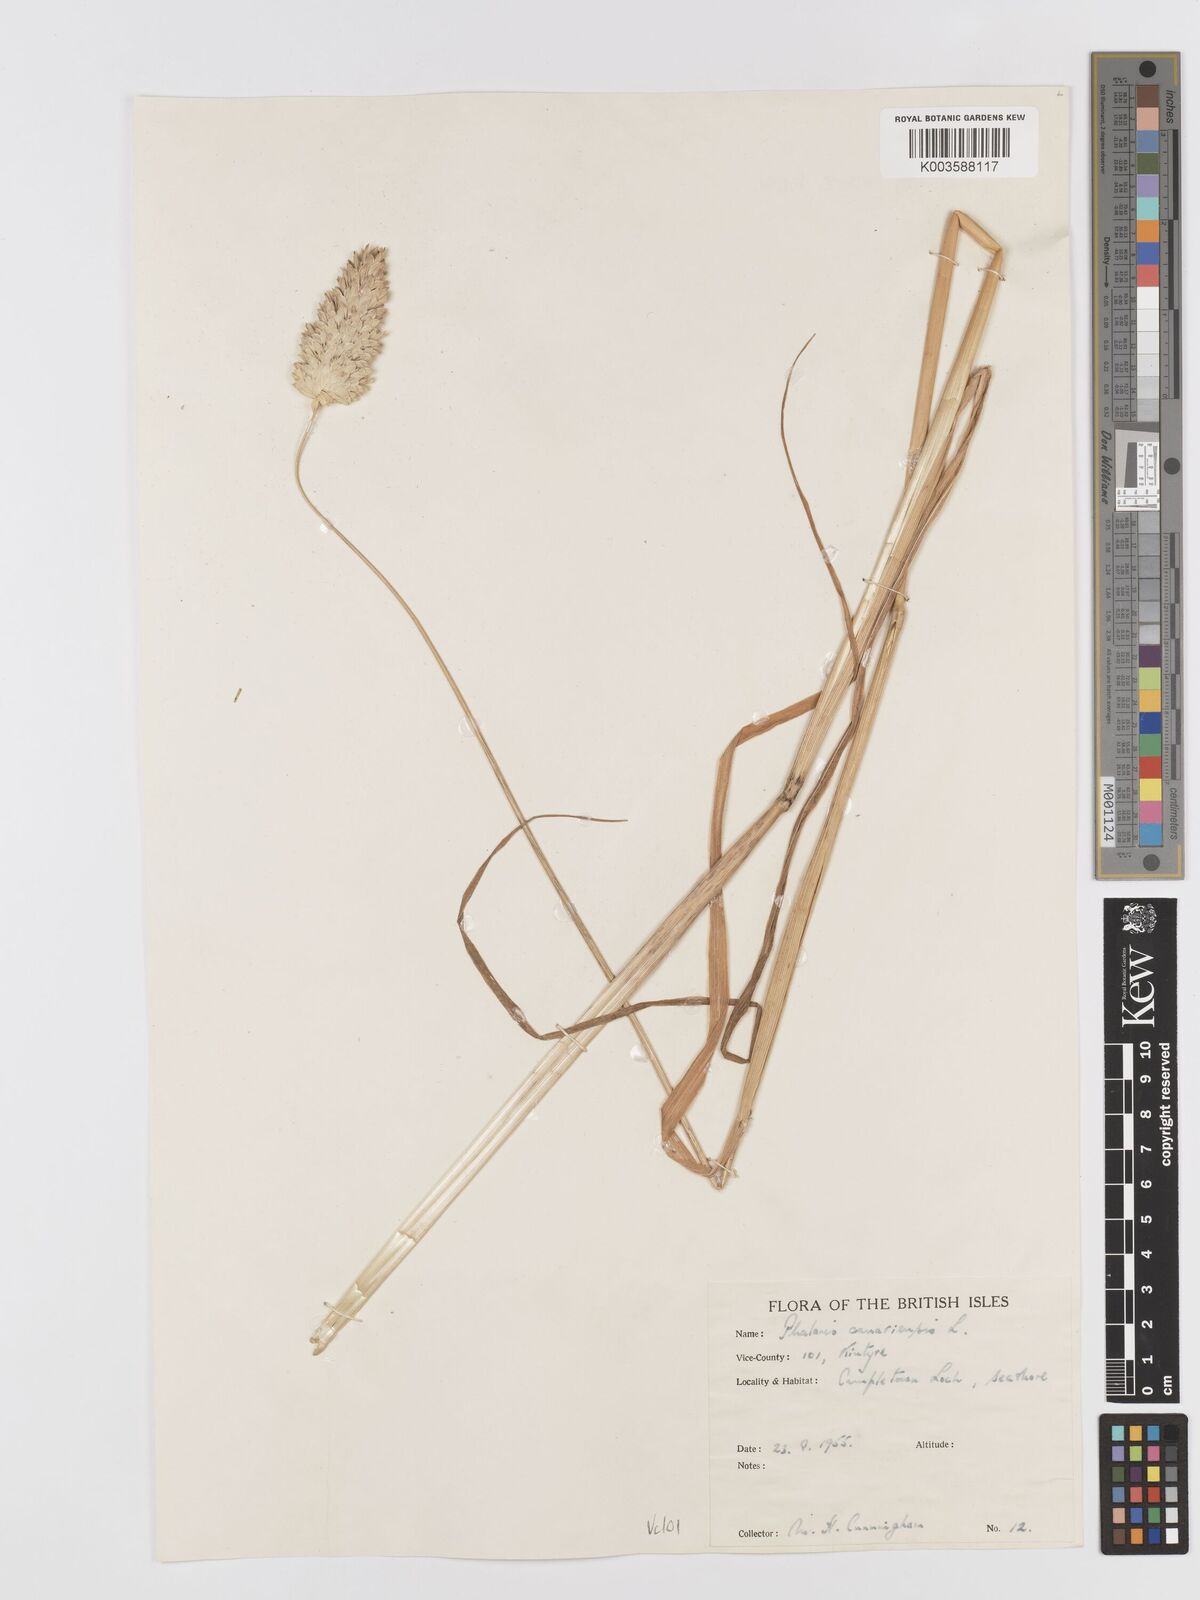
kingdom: Plantae
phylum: Tracheophyta
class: Liliopsida
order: Poales
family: Poaceae
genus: Phalaris
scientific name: Phalaris canariensis
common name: Annual canarygrass
